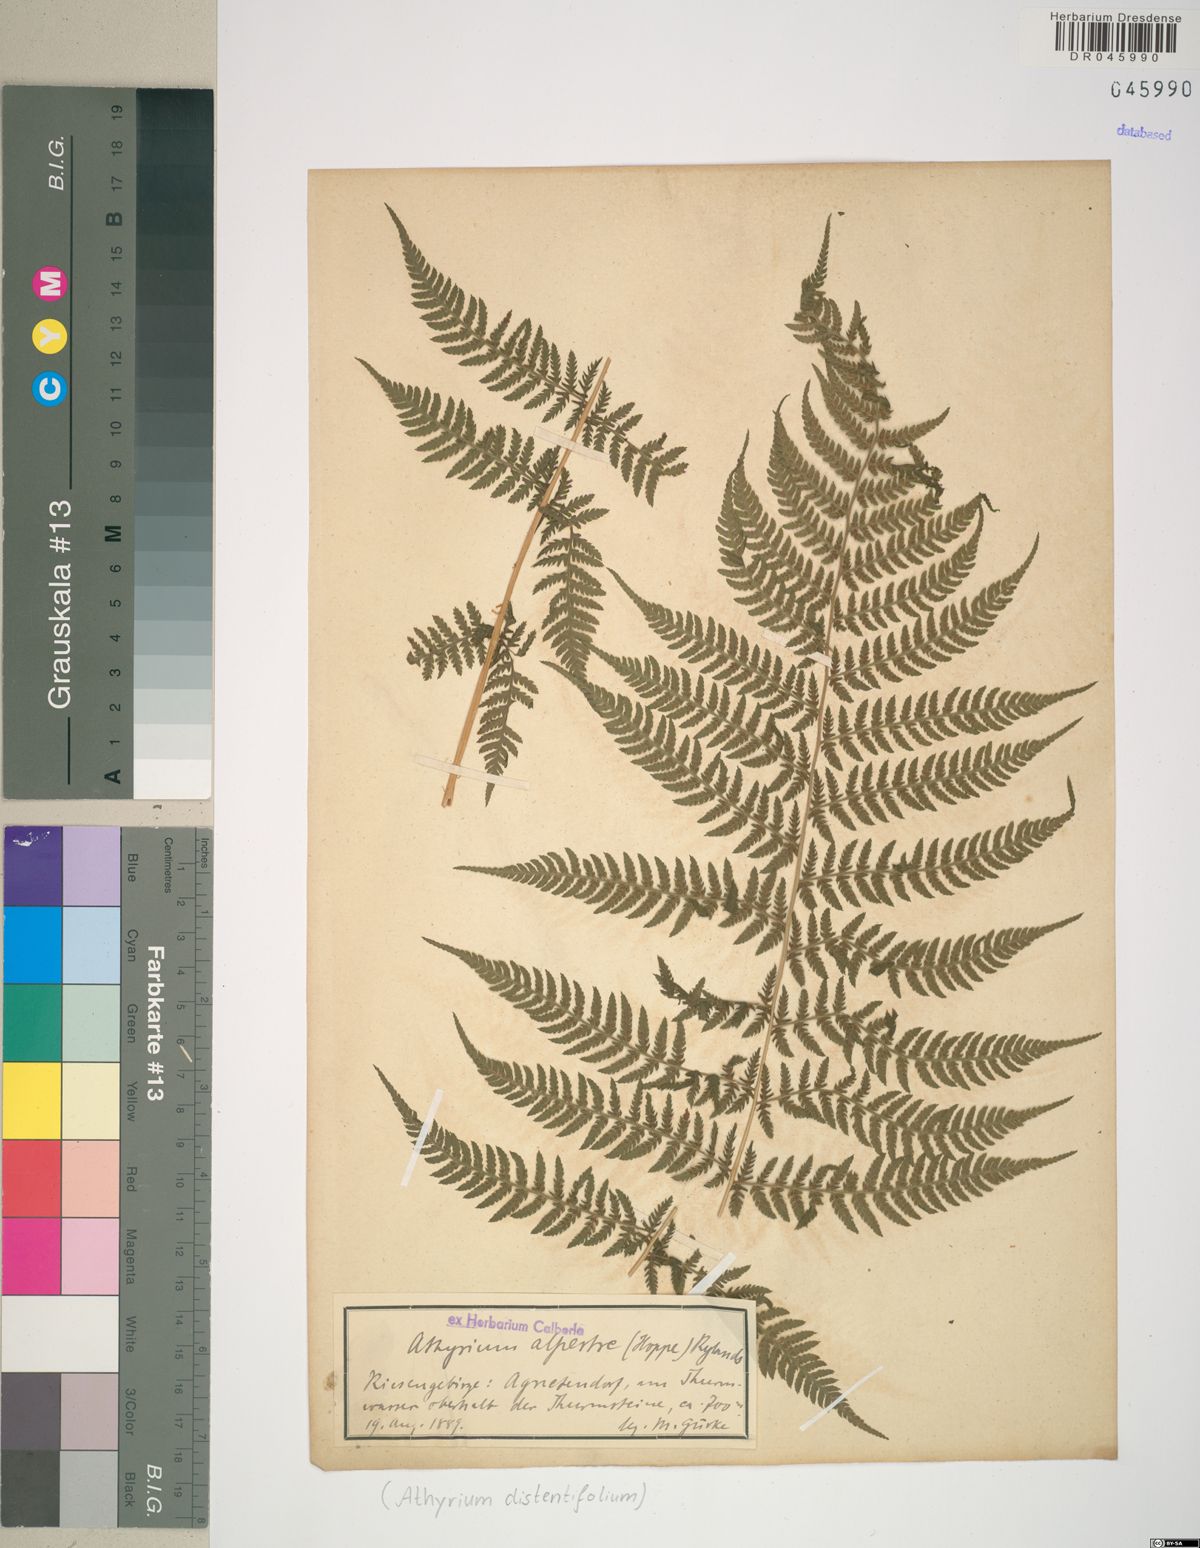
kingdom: Plantae
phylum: Tracheophyta
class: Polypodiopsida
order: Polypodiales
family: Athyriaceae
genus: Pseudathyrium
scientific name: Pseudathyrium alpestre
